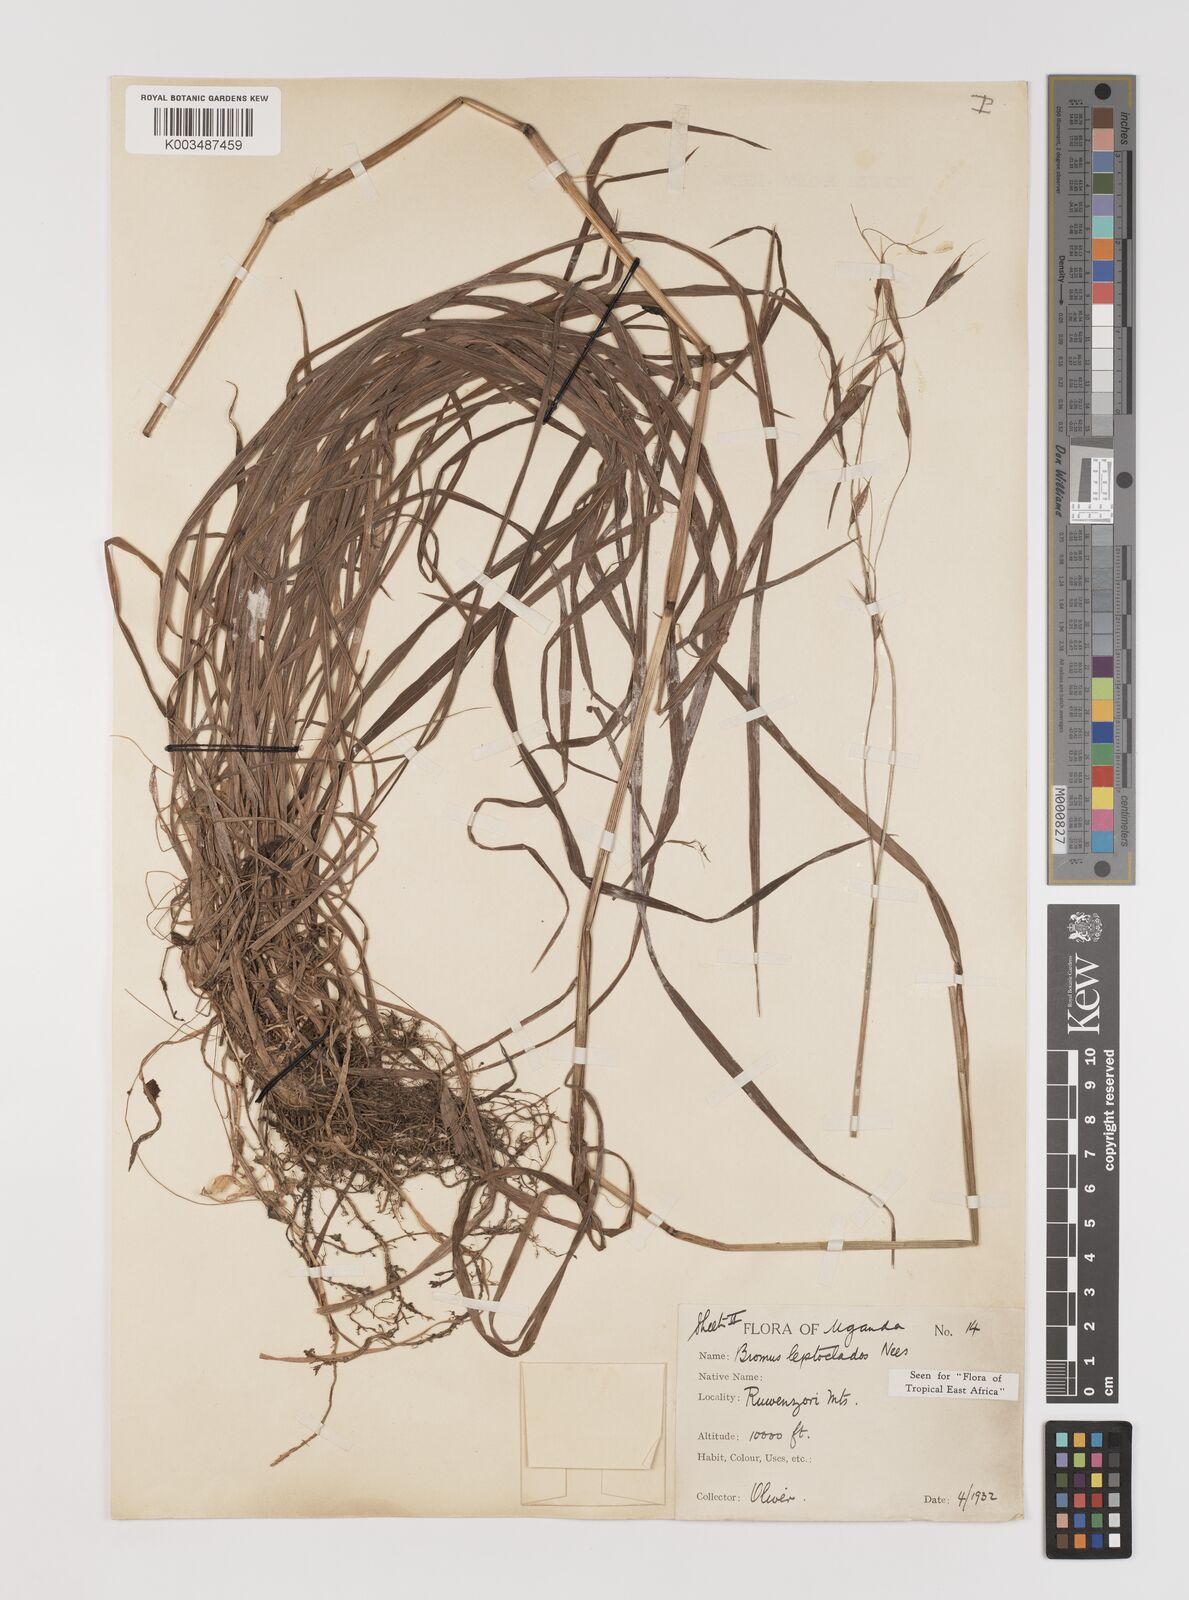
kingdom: Plantae
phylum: Tracheophyta
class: Liliopsida
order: Poales
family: Poaceae
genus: Bromus
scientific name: Bromus leptoclados
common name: Mountain bromegrass
